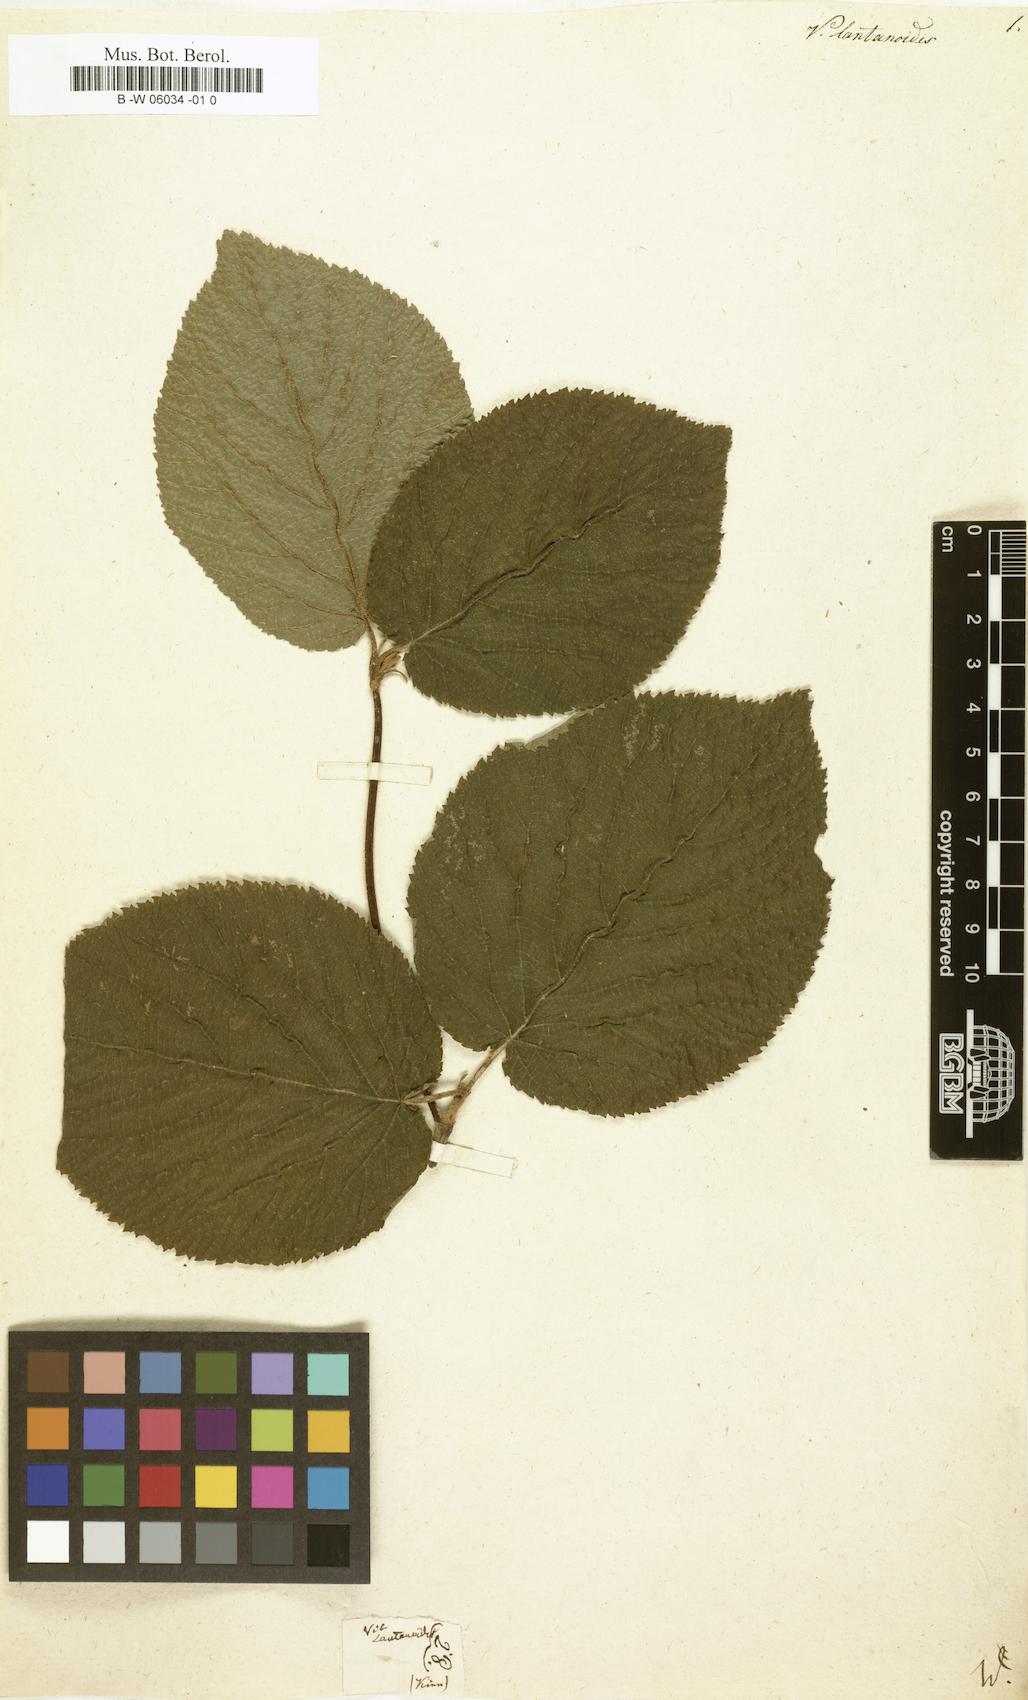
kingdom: Plantae
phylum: Tracheophyta
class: Magnoliopsida
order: Dipsacales
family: Viburnaceae
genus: Viburnum
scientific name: Viburnum lantanoides
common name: Hobblebush
